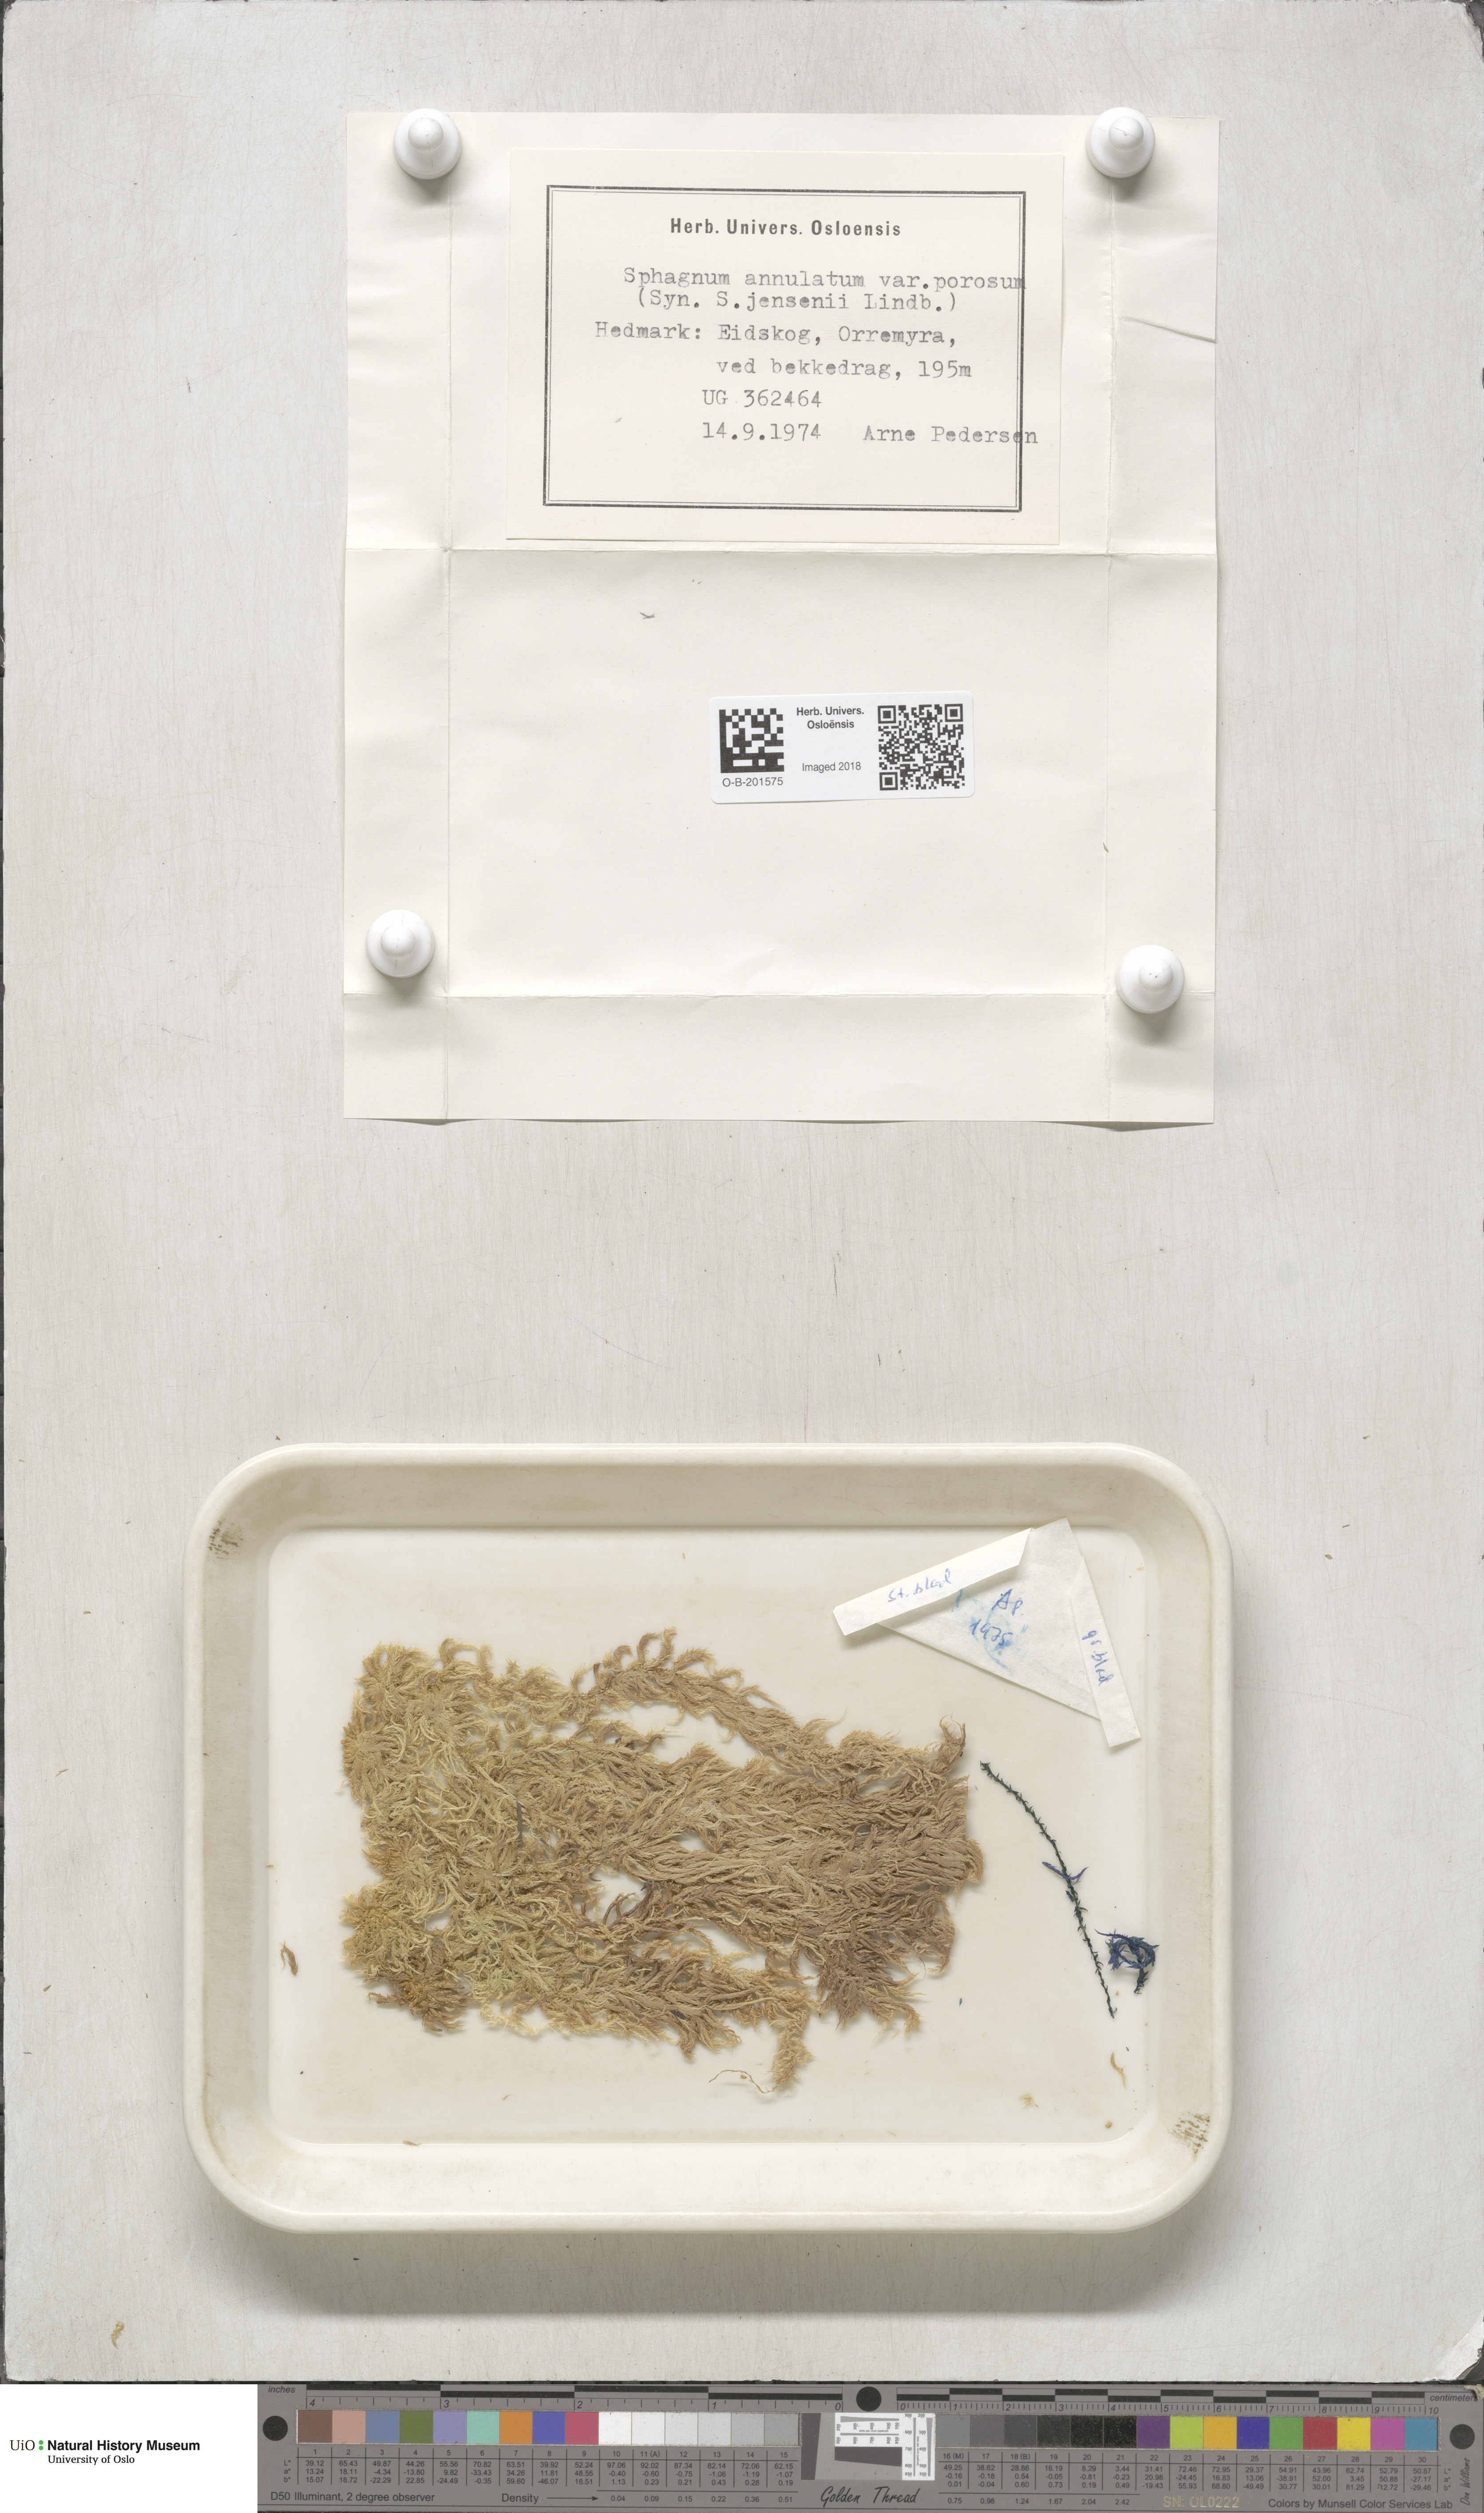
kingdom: Plantae
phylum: Bryophyta
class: Sphagnopsida
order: Sphagnales
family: Sphagnaceae
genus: Sphagnum
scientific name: Sphagnum jensenii
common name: Jensen's peat moss
